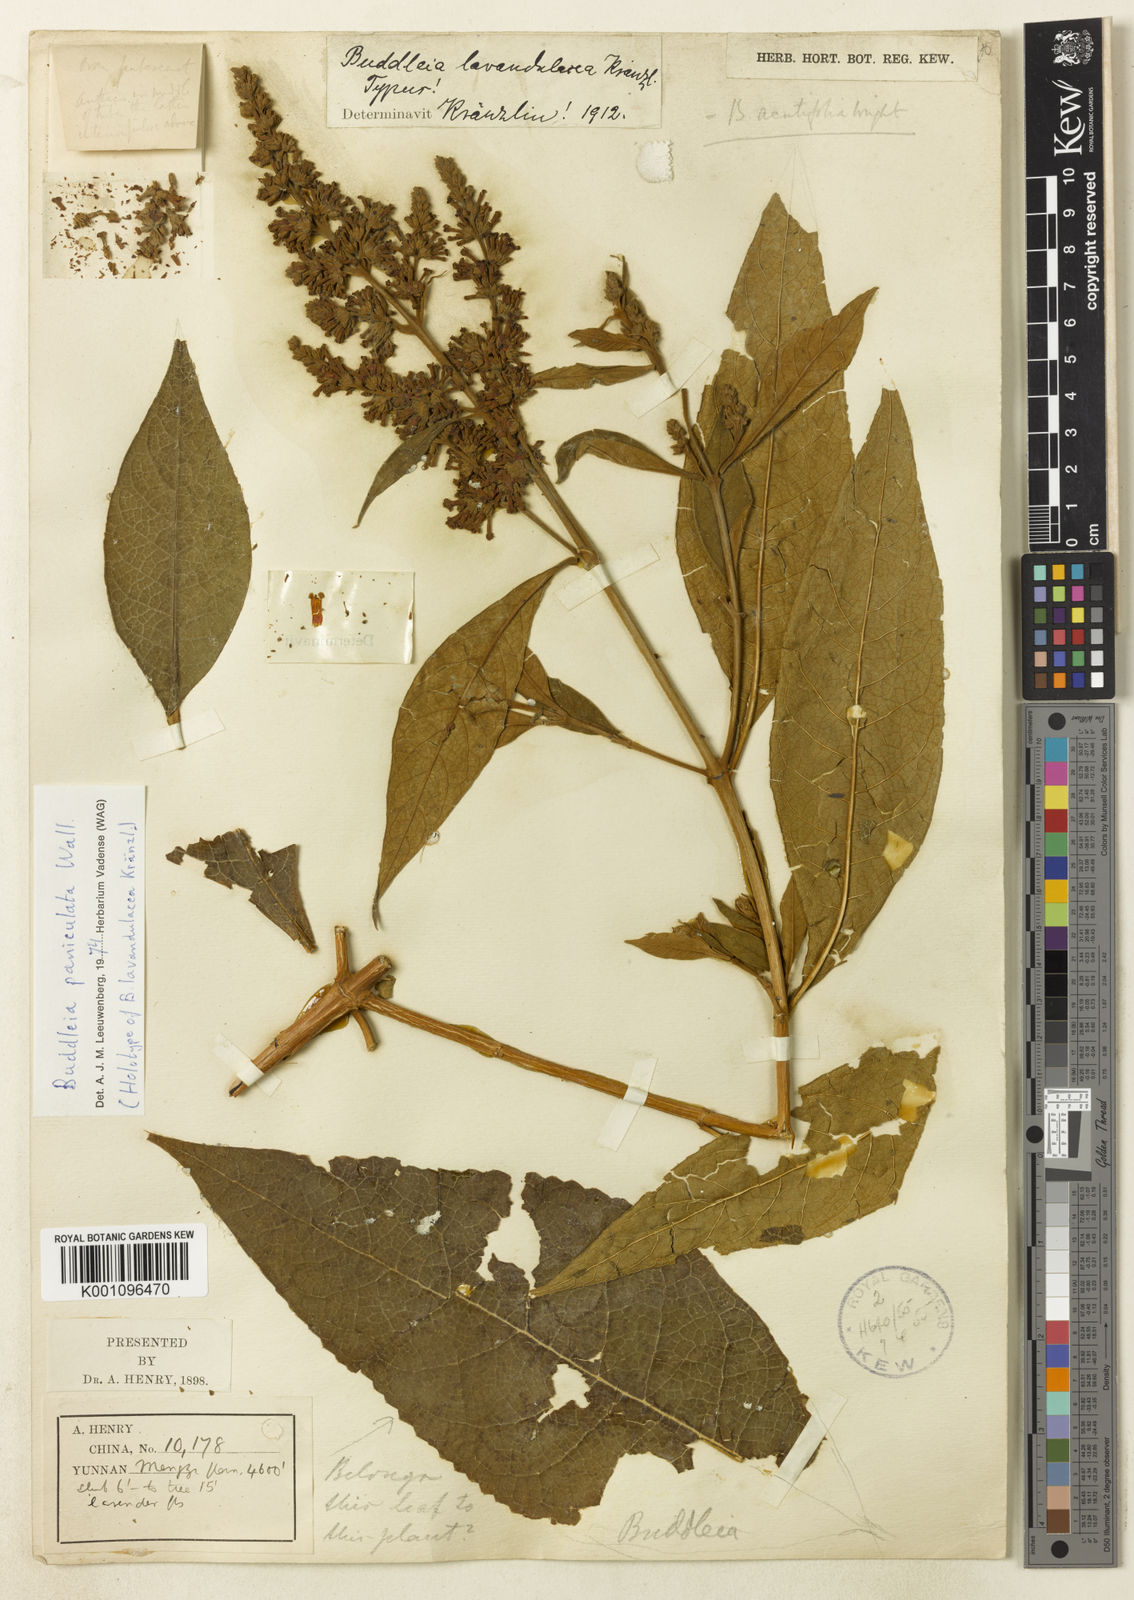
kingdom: Plantae
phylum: Tracheophyta
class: Magnoliopsida
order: Lamiales
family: Scrophulariaceae
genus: Buddleja
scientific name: Buddleja paniculata
